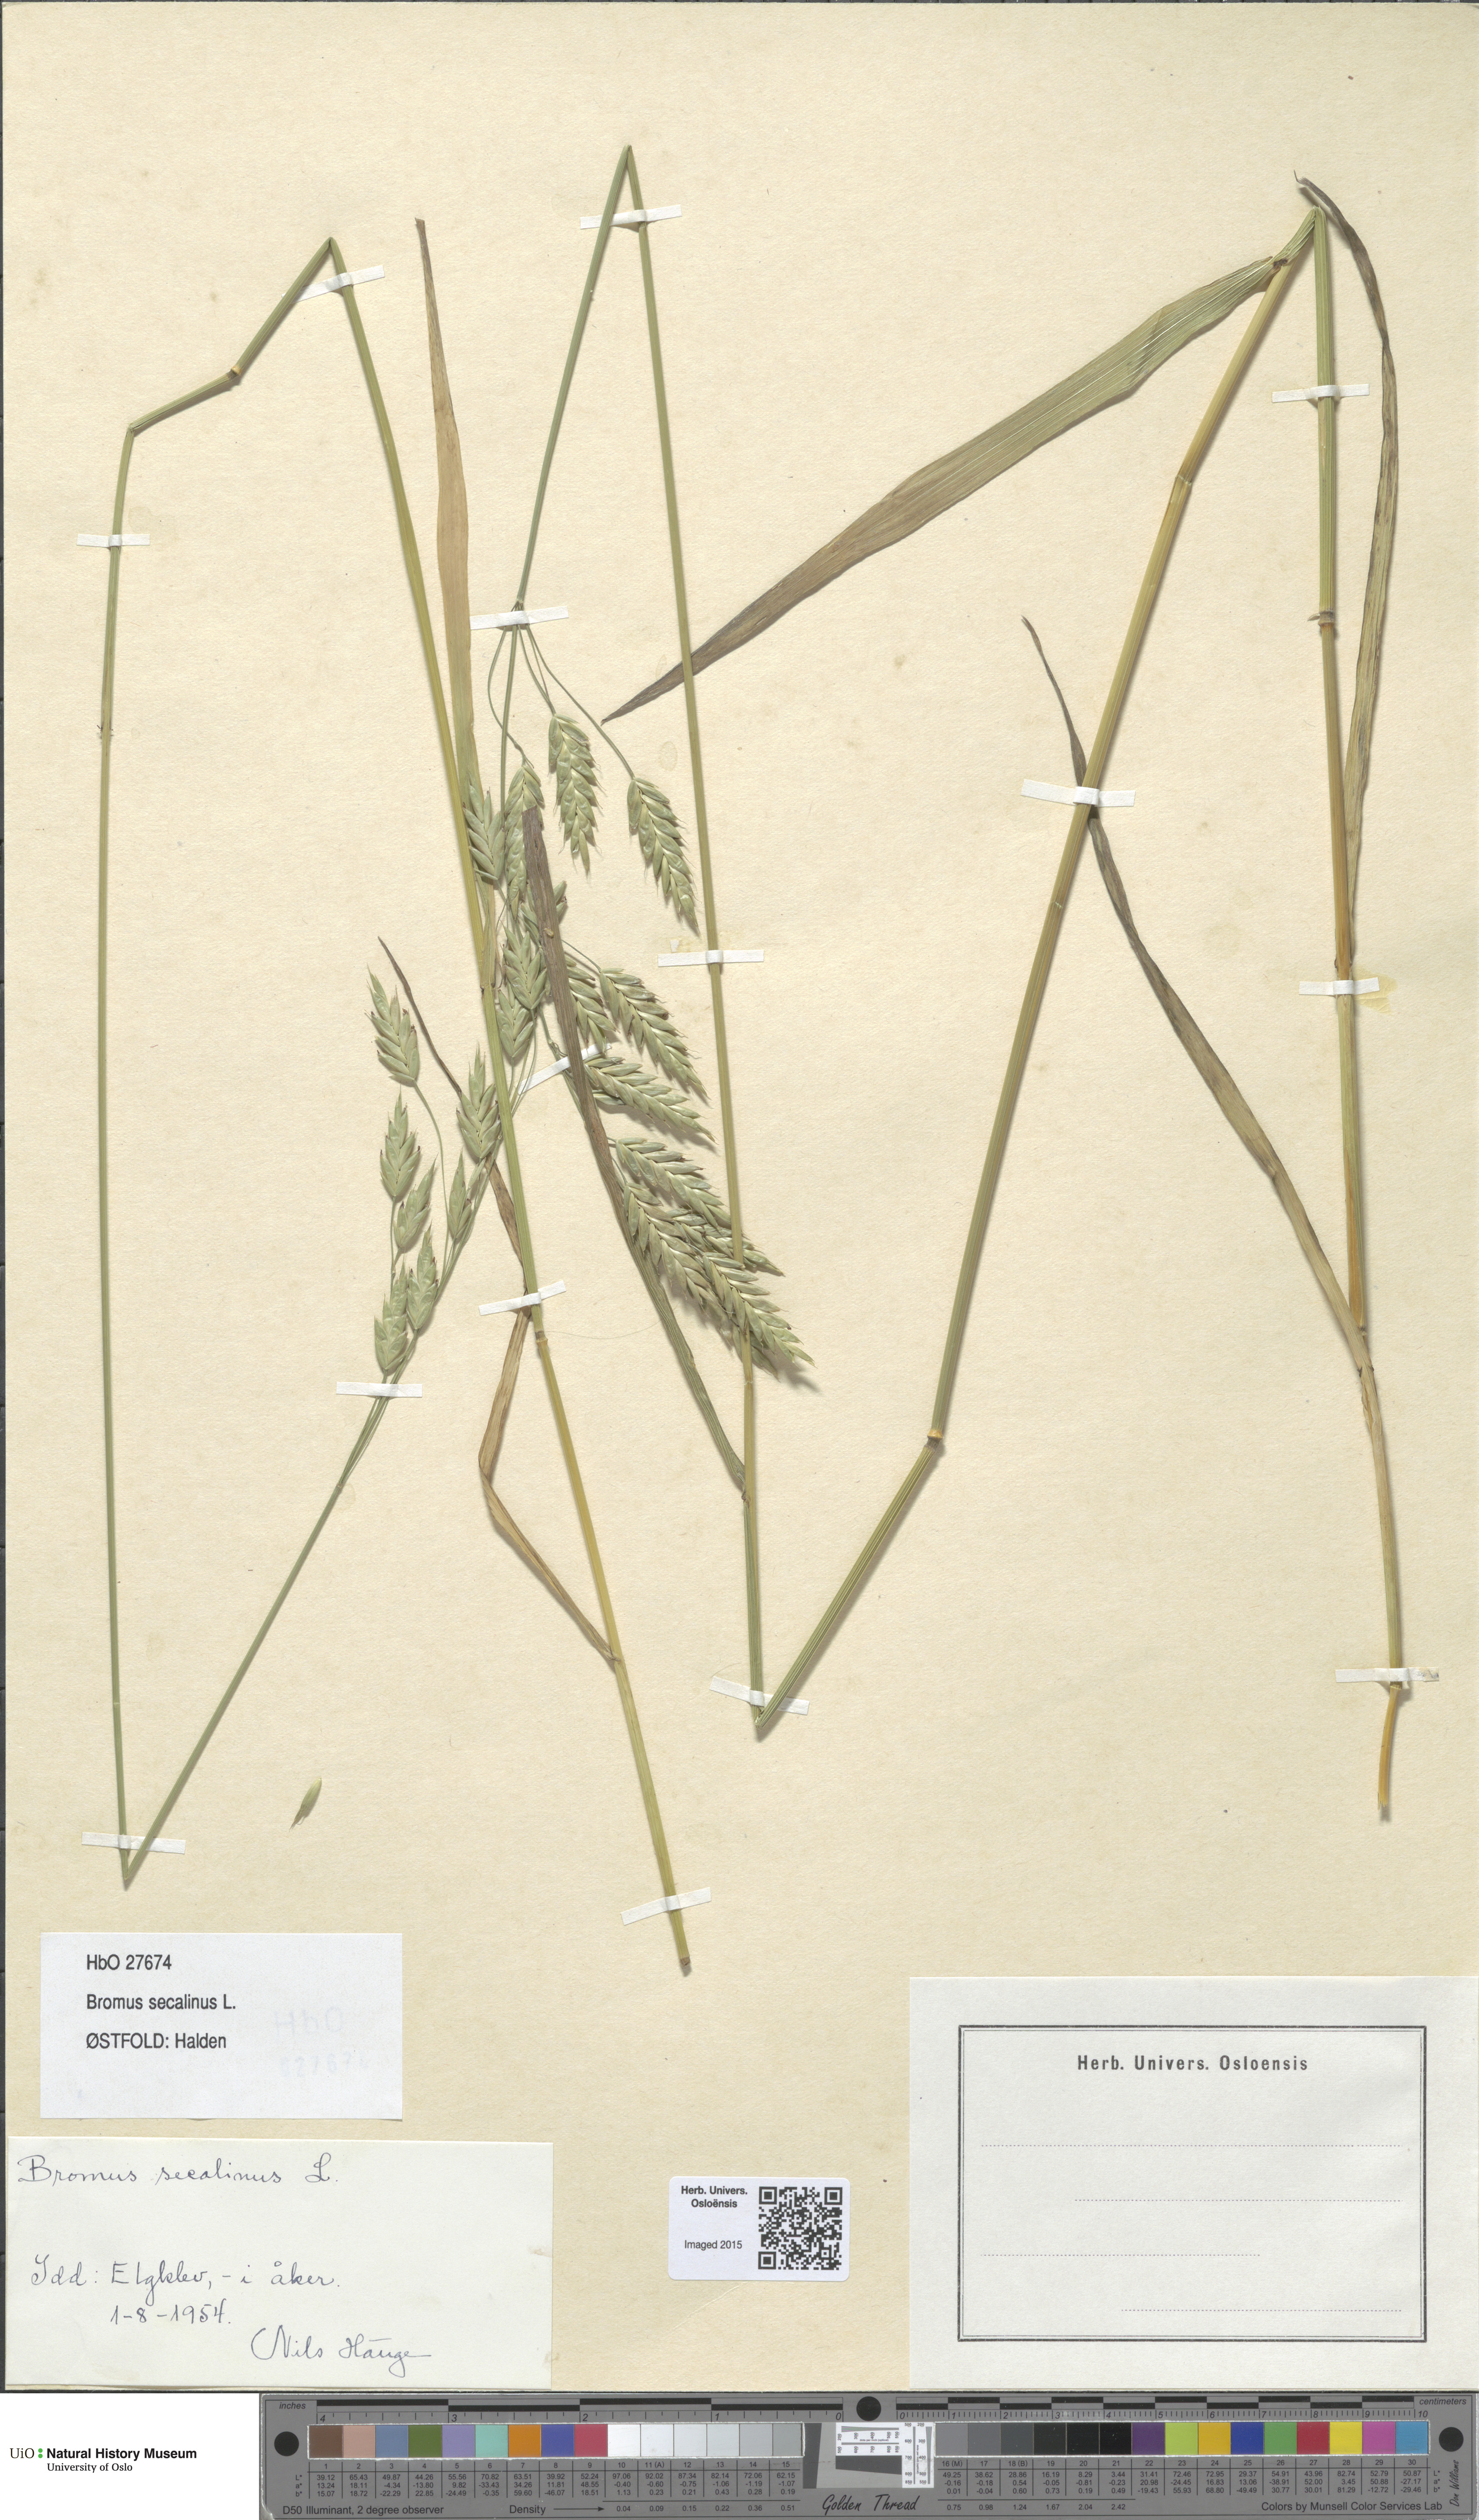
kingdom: Plantae
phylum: Tracheophyta
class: Liliopsida
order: Poales
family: Poaceae
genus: Bromus
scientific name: Bromus secalinus
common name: Rye brome
